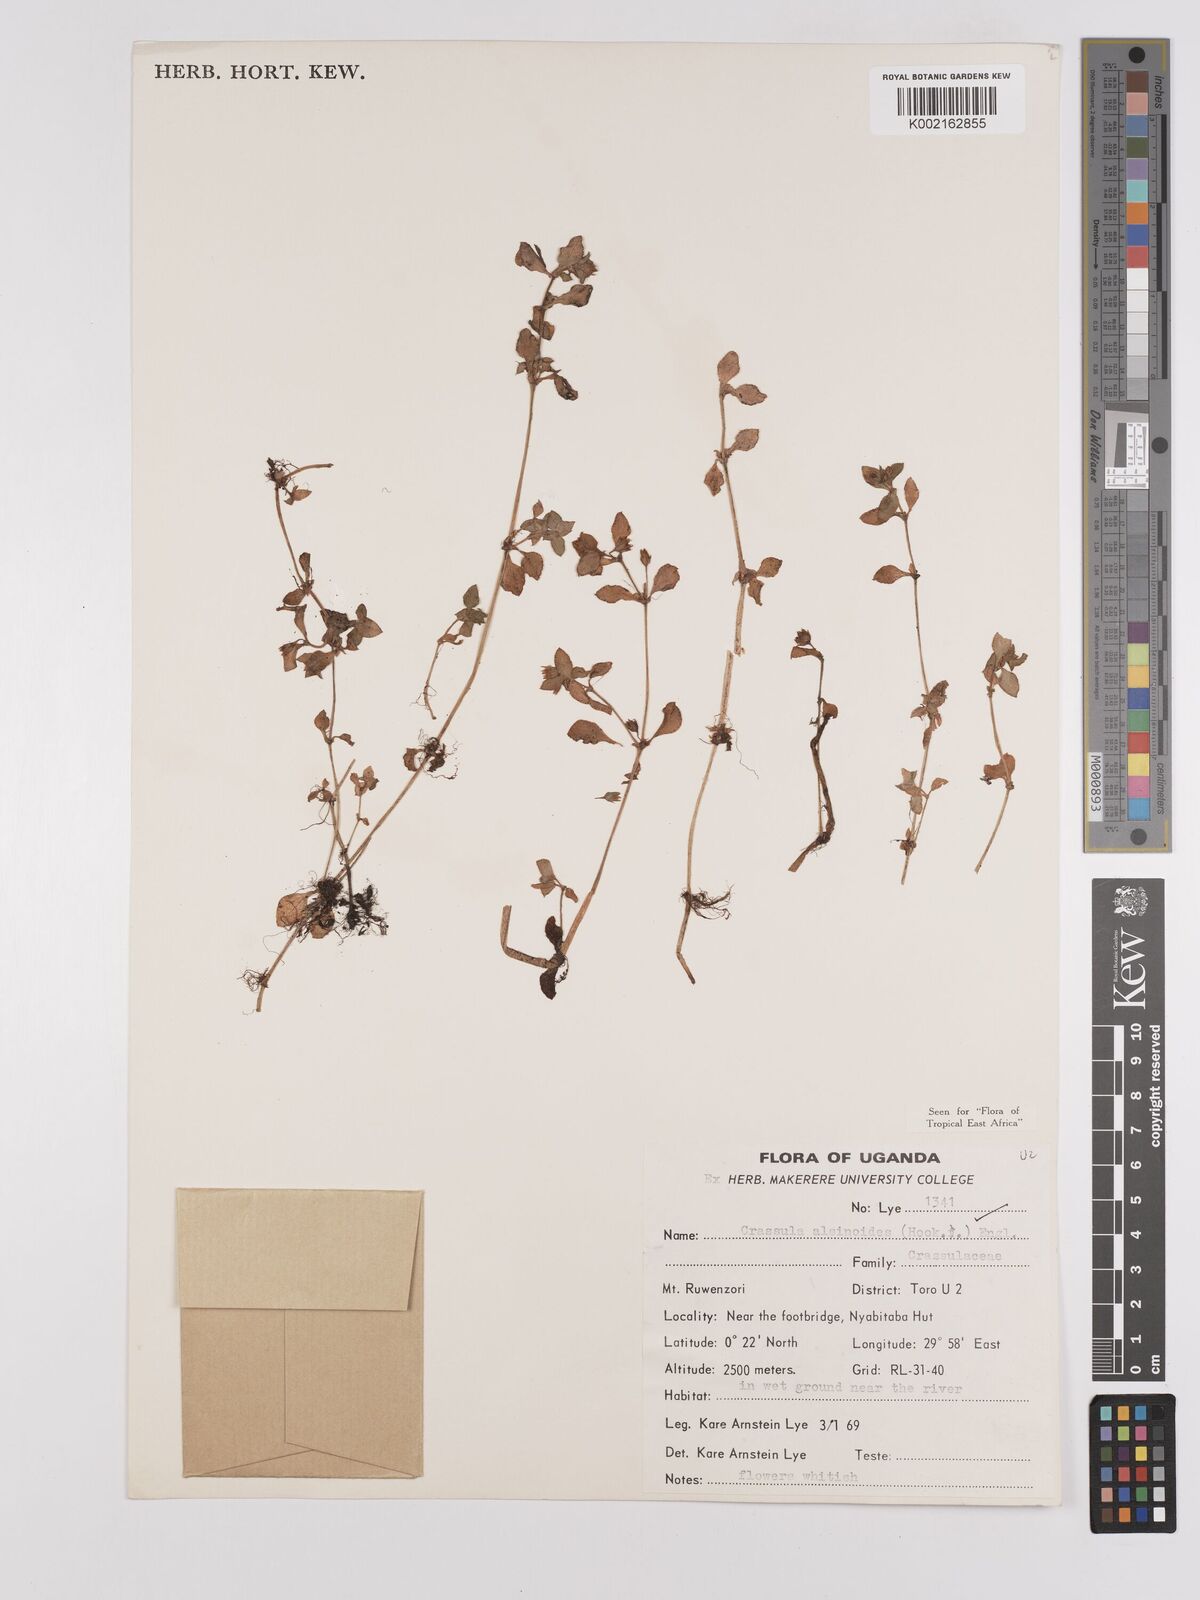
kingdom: Plantae
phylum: Tracheophyta
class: Magnoliopsida
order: Saxifragales
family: Crassulaceae
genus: Crassula
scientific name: Crassula alsinoides
